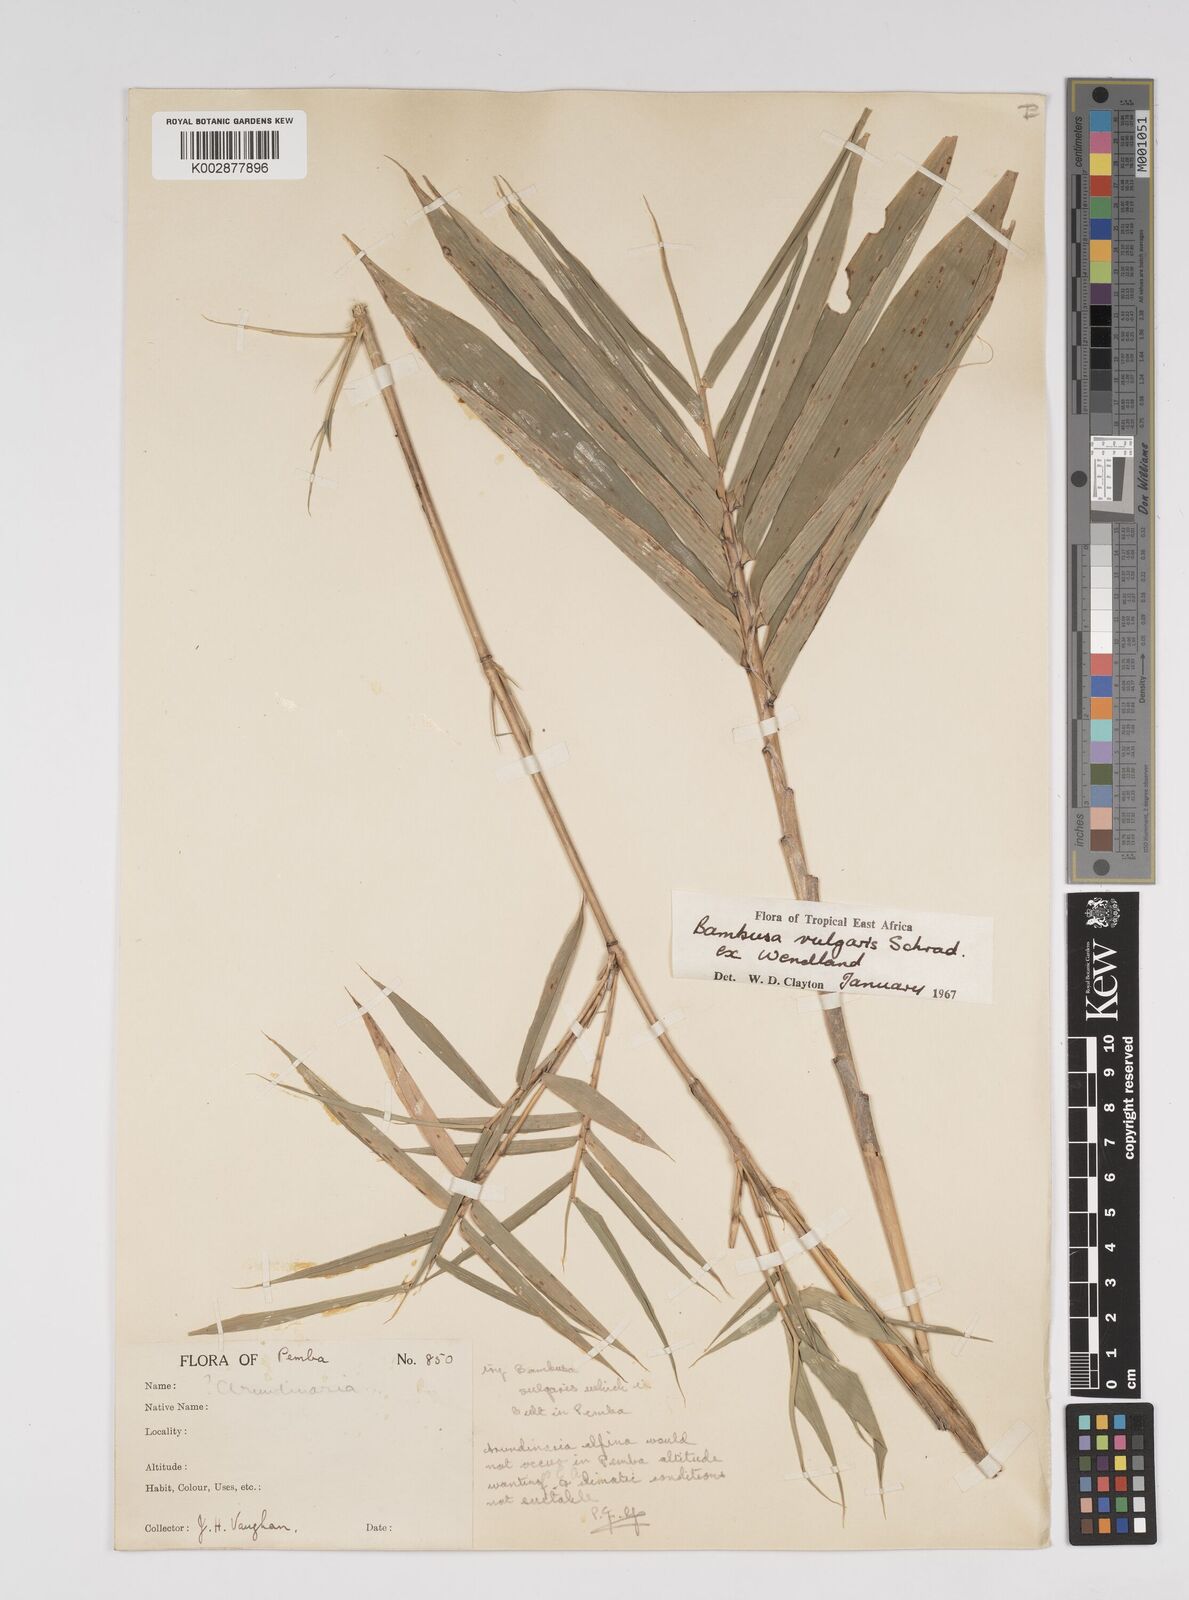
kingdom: Plantae
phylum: Tracheophyta
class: Liliopsida
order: Poales
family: Poaceae
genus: Bambusa
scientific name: Bambusa balcooa
